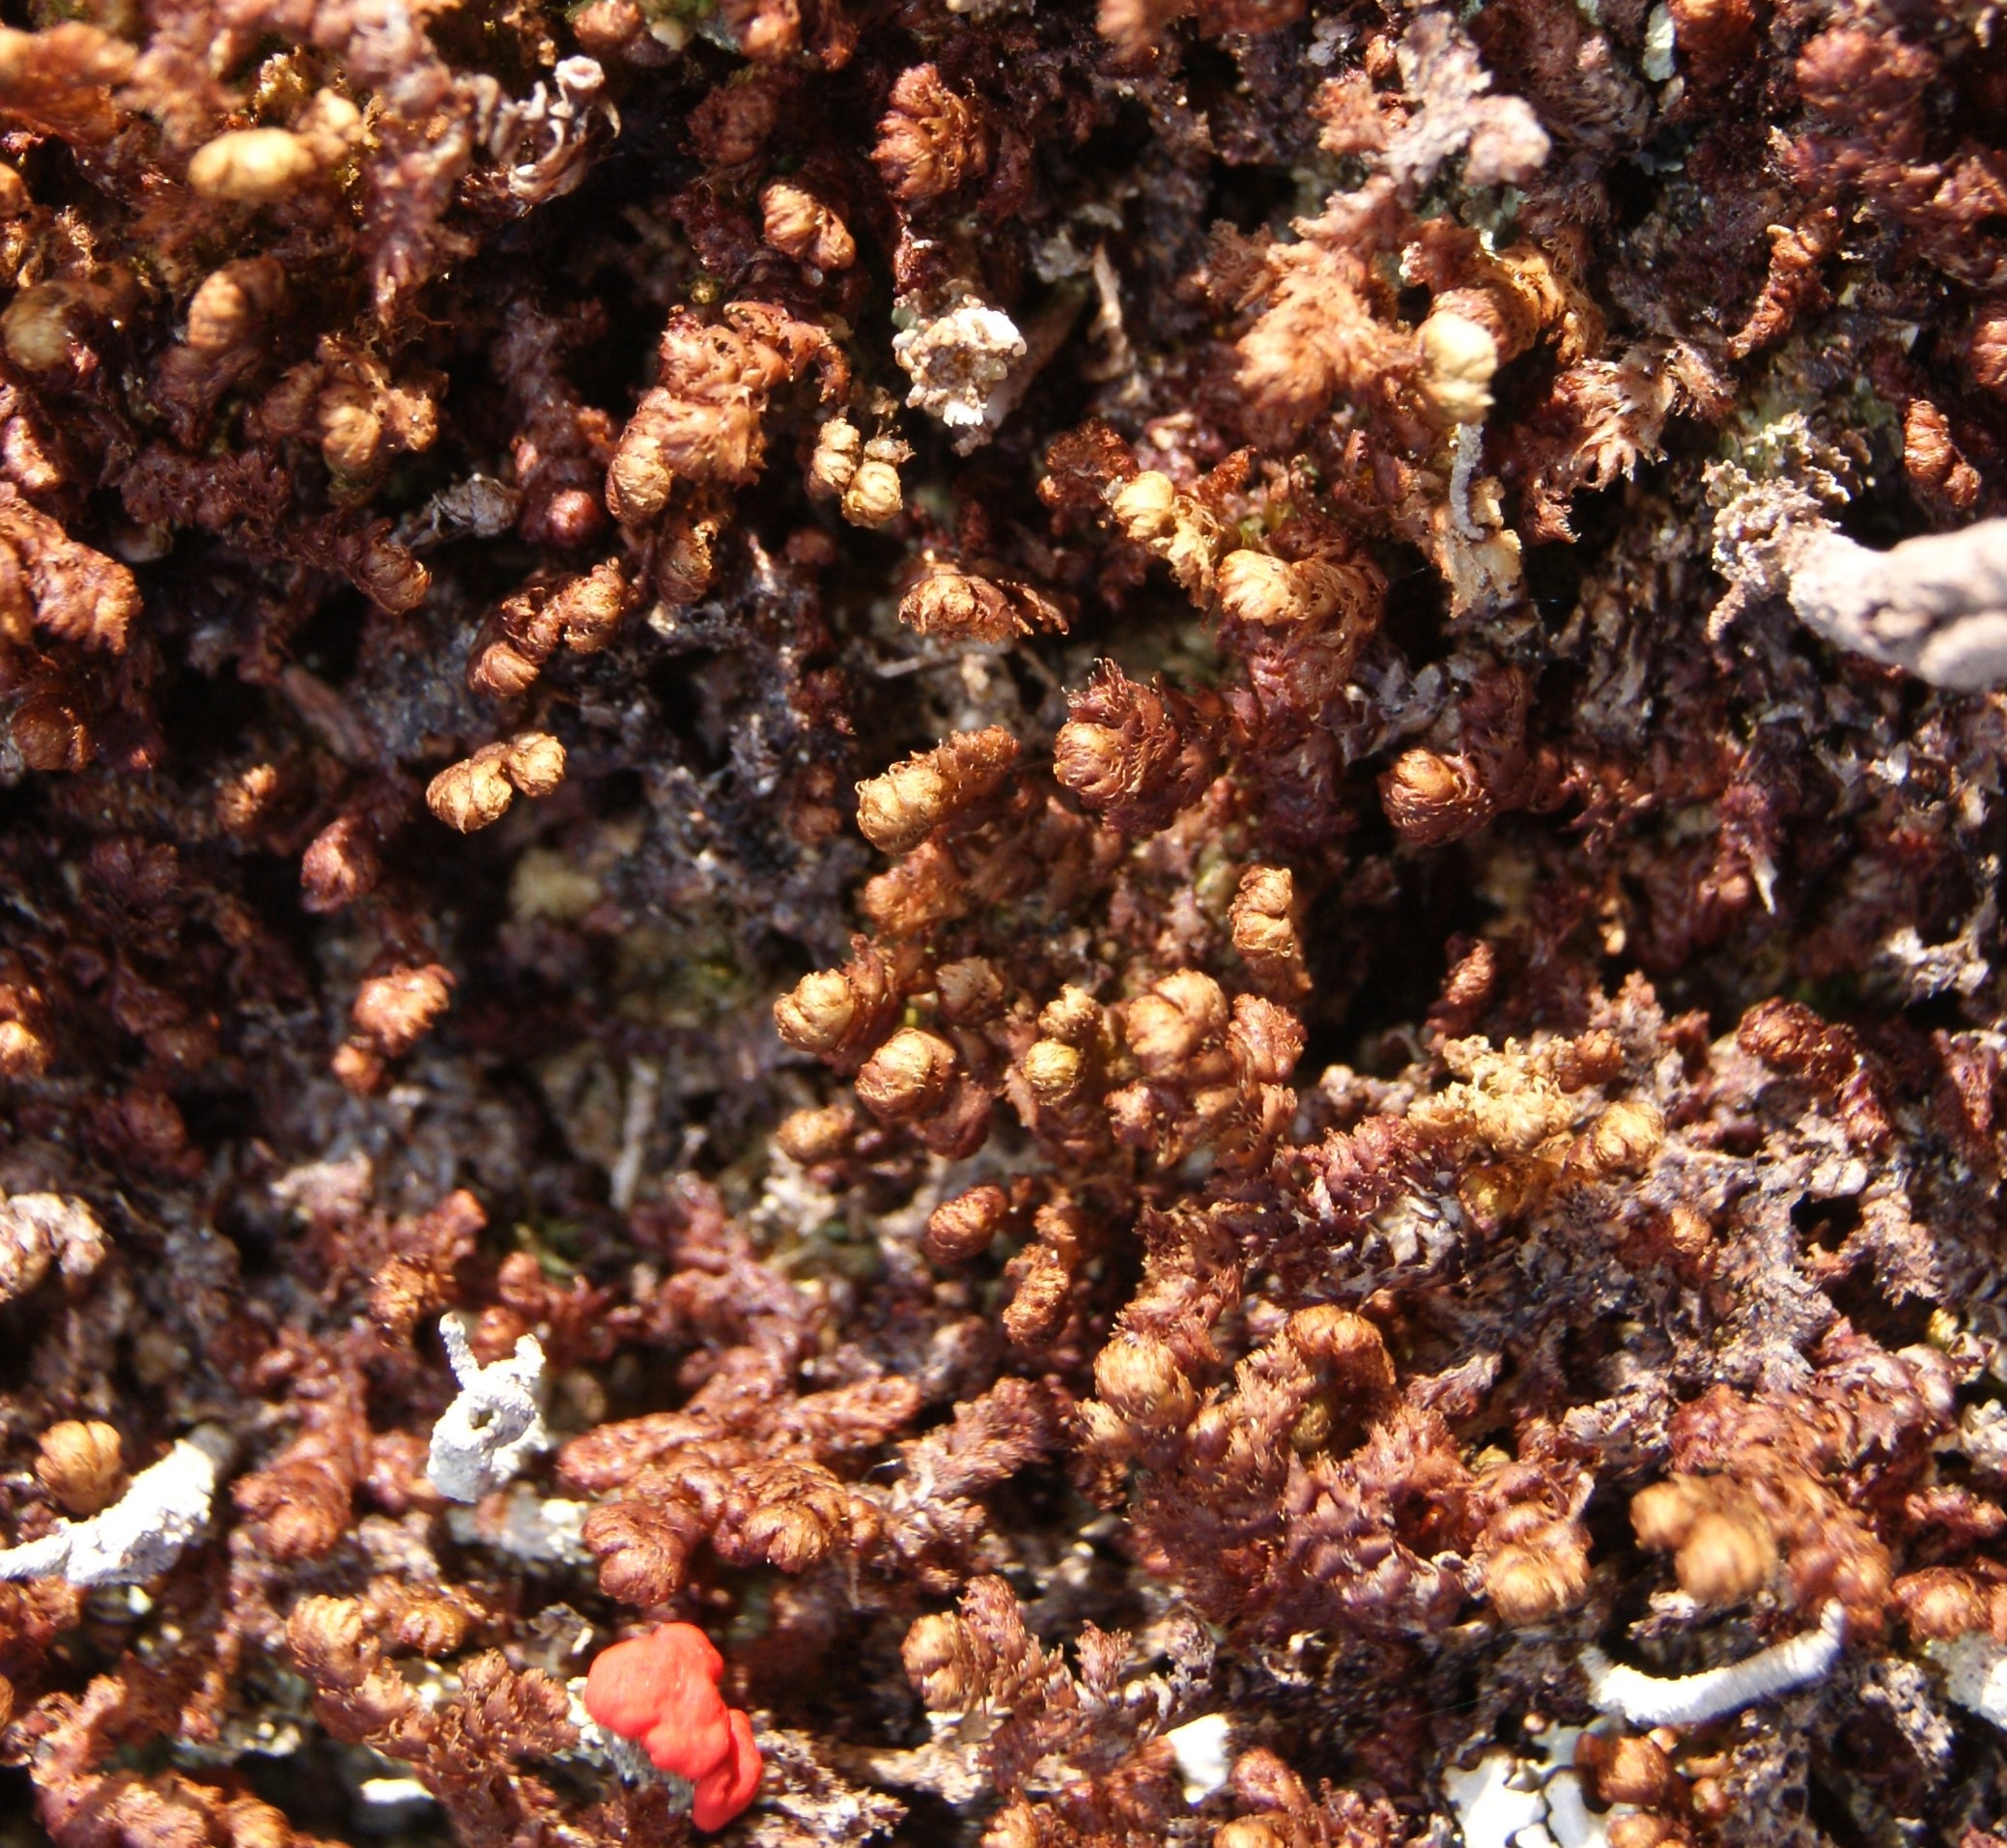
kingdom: Plantae
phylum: Marchantiophyta
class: Jungermanniopsida
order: Ptilidiales
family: Ptilidiaceae
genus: Ptilidium
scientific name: Ptilidium ciliare
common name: Almindelig frynsemos
